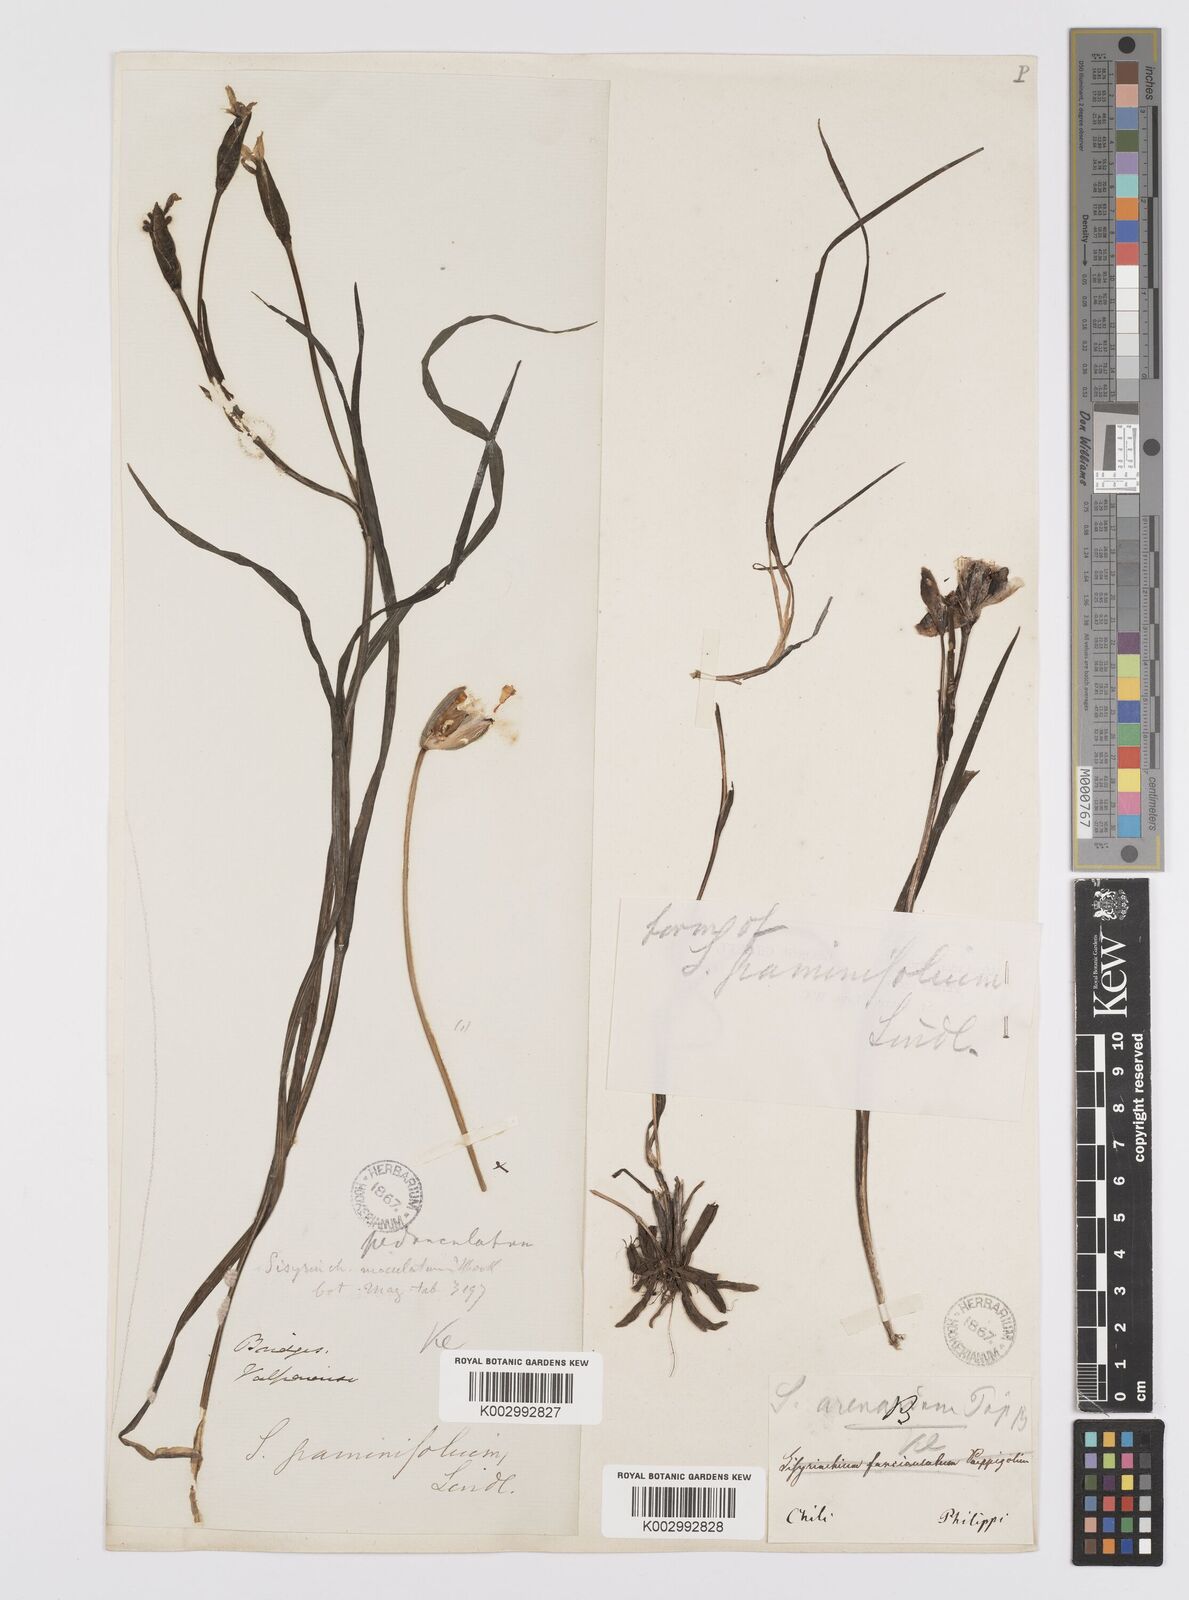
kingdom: Plantae
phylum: Tracheophyta
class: Liliopsida
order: Asparagales
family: Iridaceae
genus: Sisyrinchium
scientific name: Sisyrinchium graminifolium
